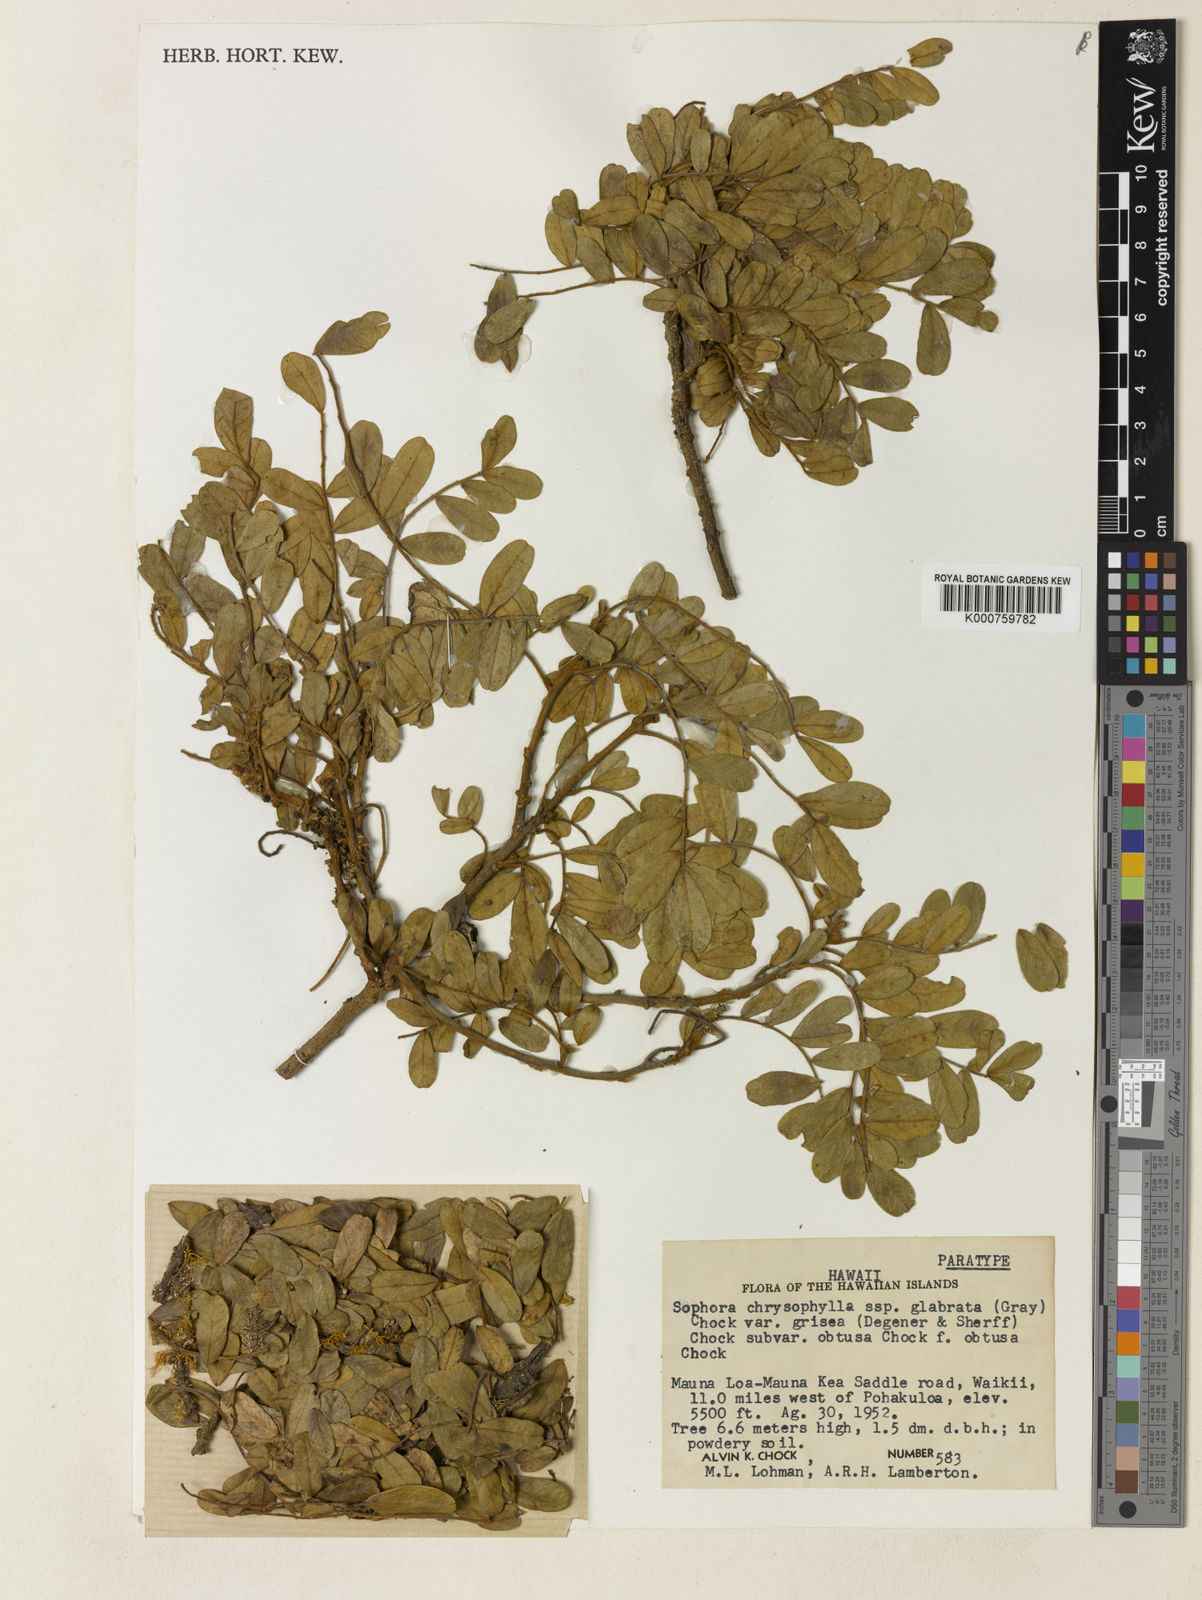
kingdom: Plantae
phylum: Tracheophyta
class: Magnoliopsida
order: Fabales
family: Fabaceae
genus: Sophora
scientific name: Sophora chrysophylla
